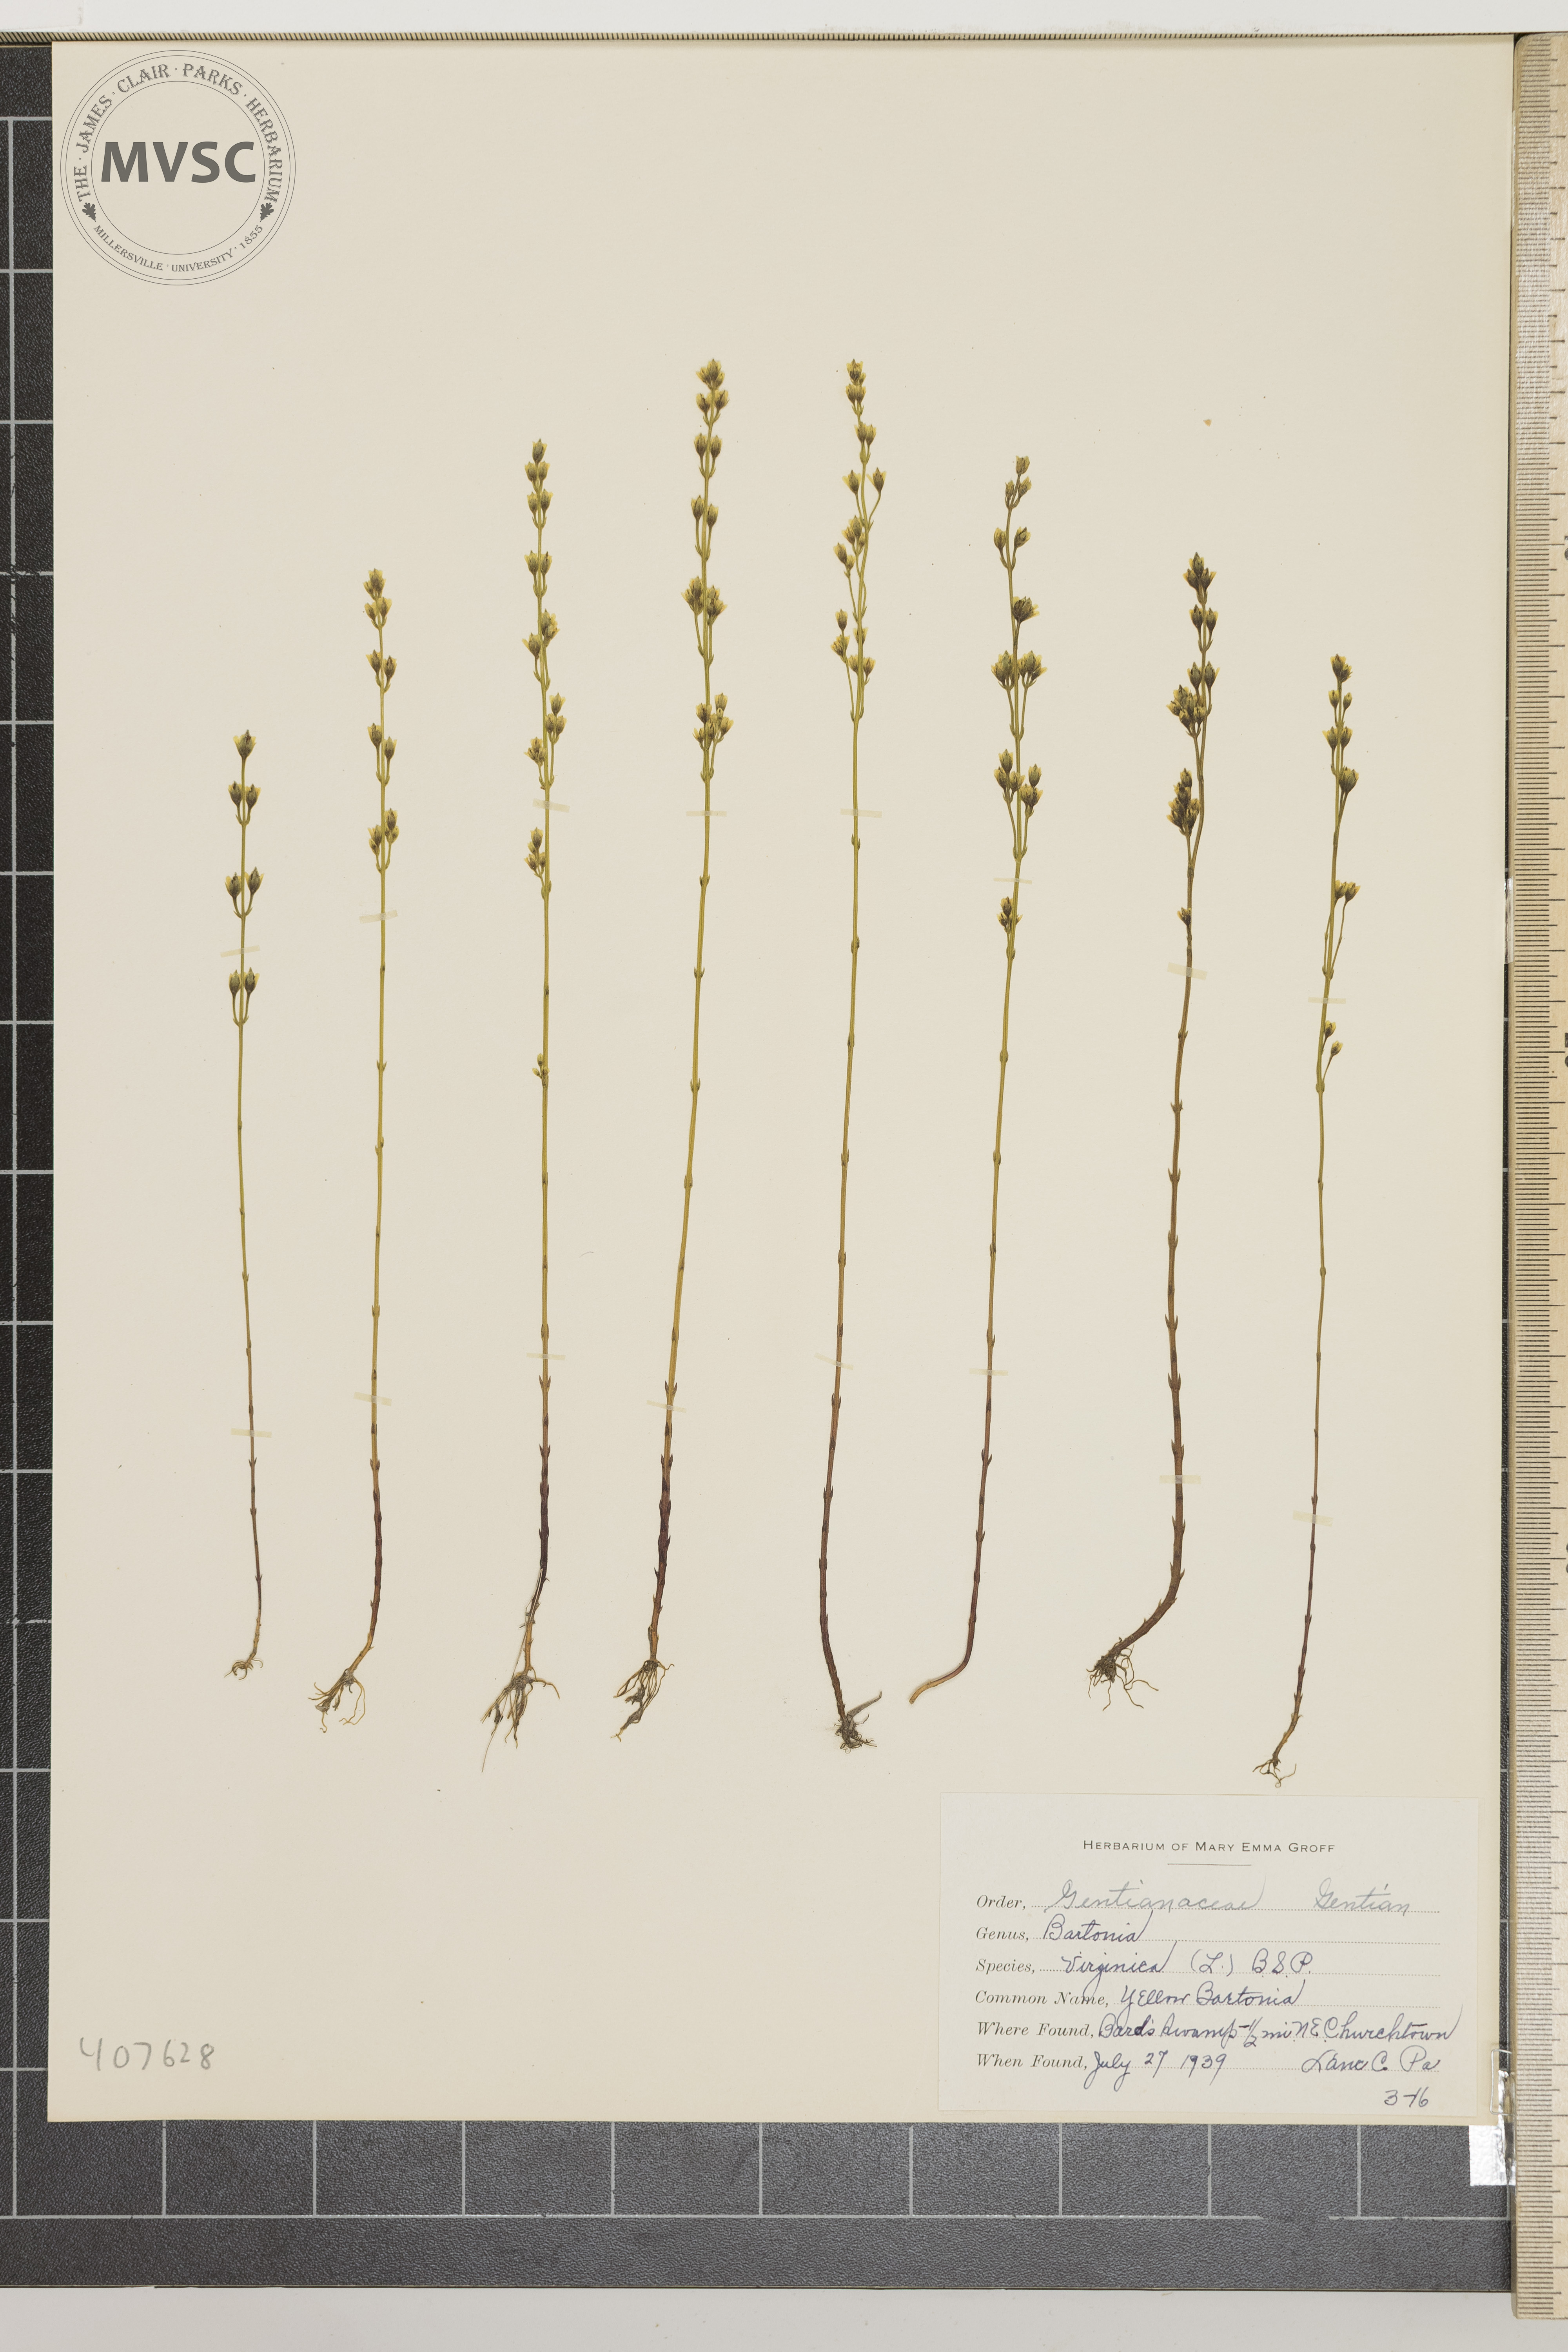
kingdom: Plantae
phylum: Tracheophyta
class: Magnoliopsida
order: Gentianales
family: Gentianaceae
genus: Bartonia
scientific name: Bartonia virginica
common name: Yellow Bartonia
